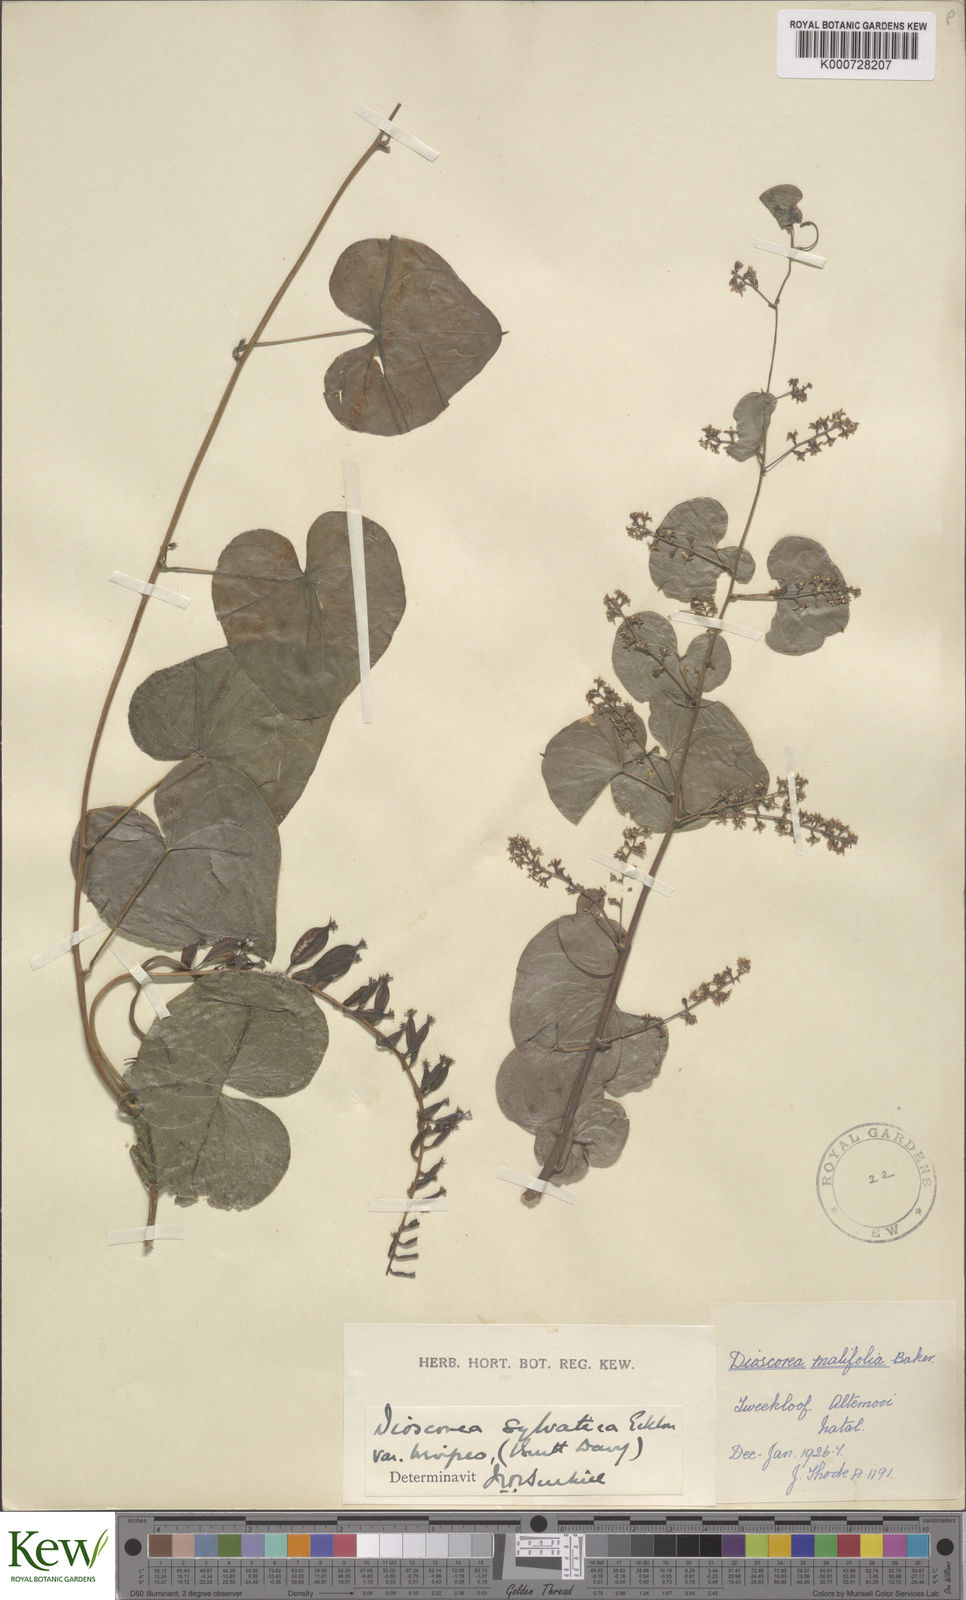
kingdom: Plantae
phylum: Tracheophyta
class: Liliopsida
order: Dioscoreales
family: Dioscoreaceae
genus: Dioscorea
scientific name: Dioscorea sylvatica
